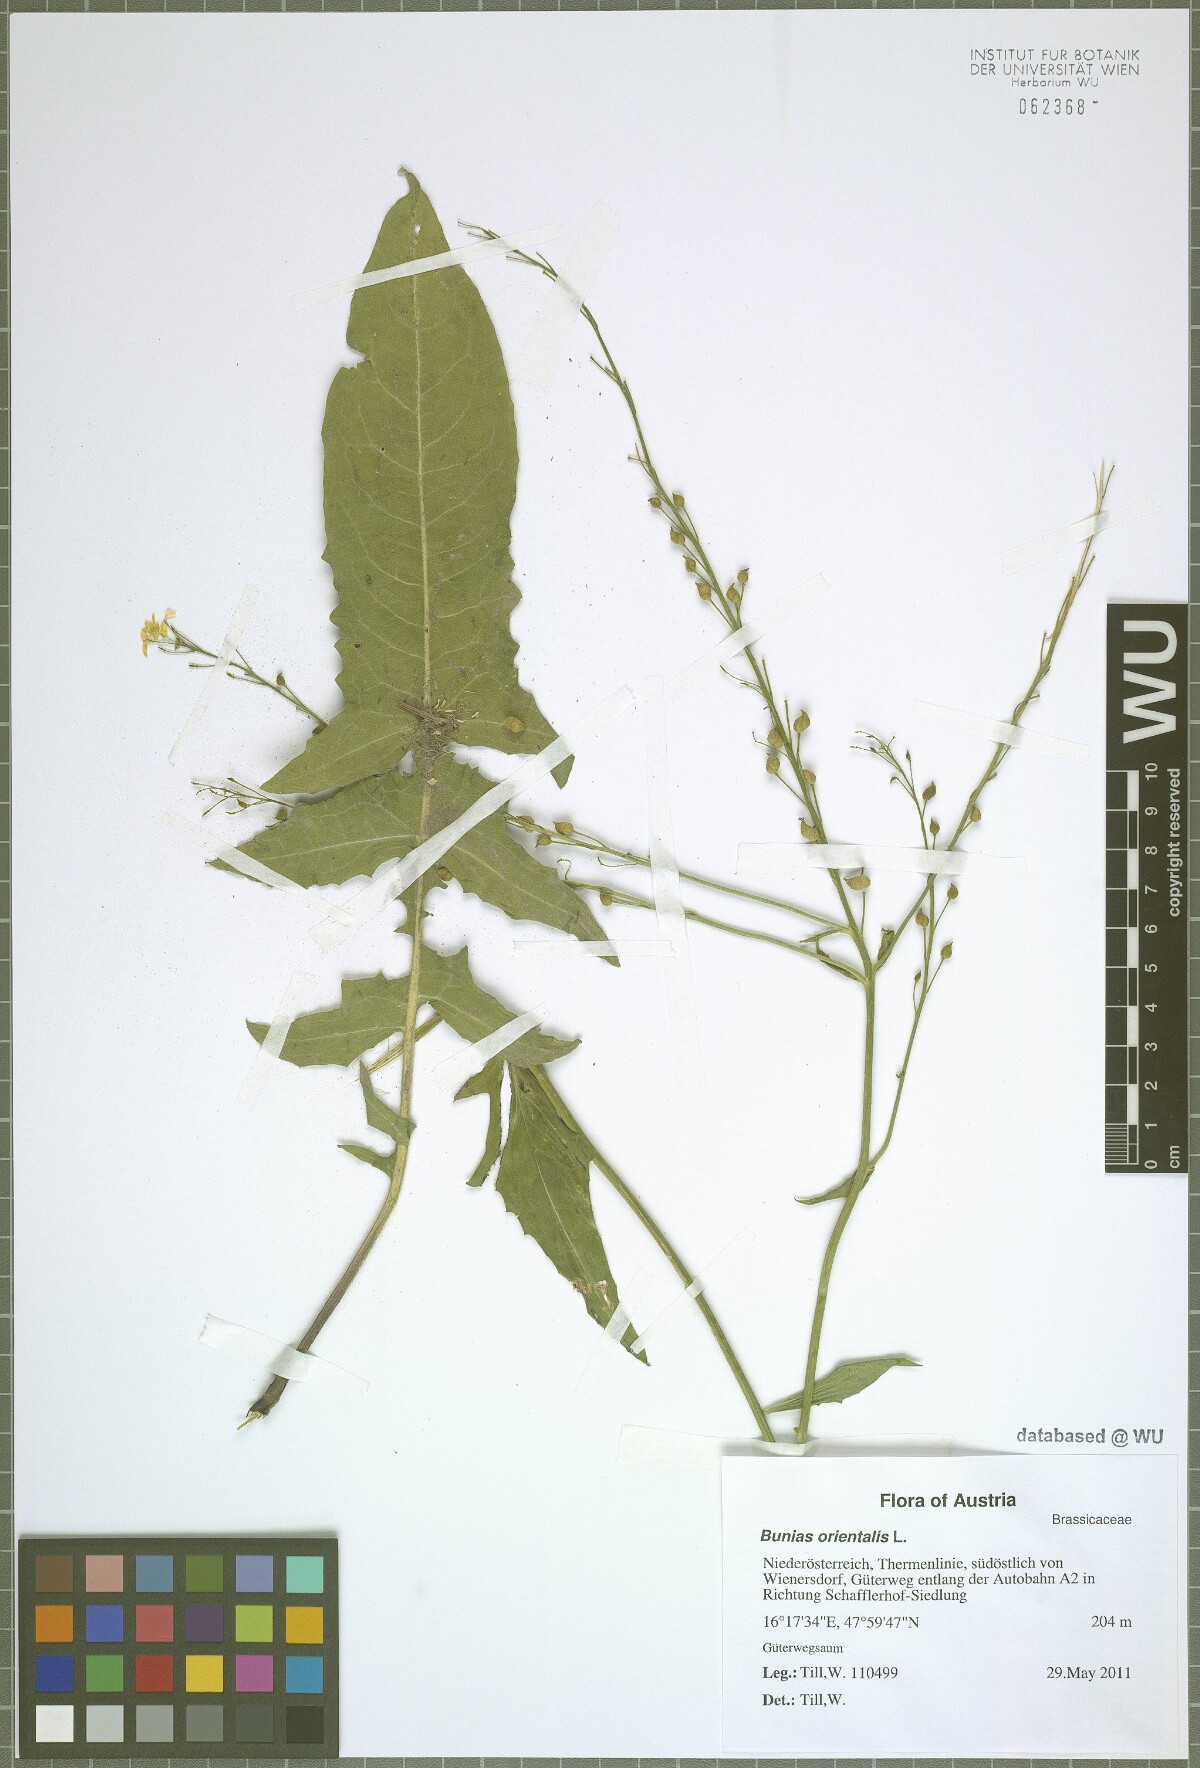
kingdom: Plantae
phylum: Tracheophyta
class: Magnoliopsida
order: Brassicales
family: Brassicaceae
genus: Bunias
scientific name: Bunias orientalis
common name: Warty-cabbage
